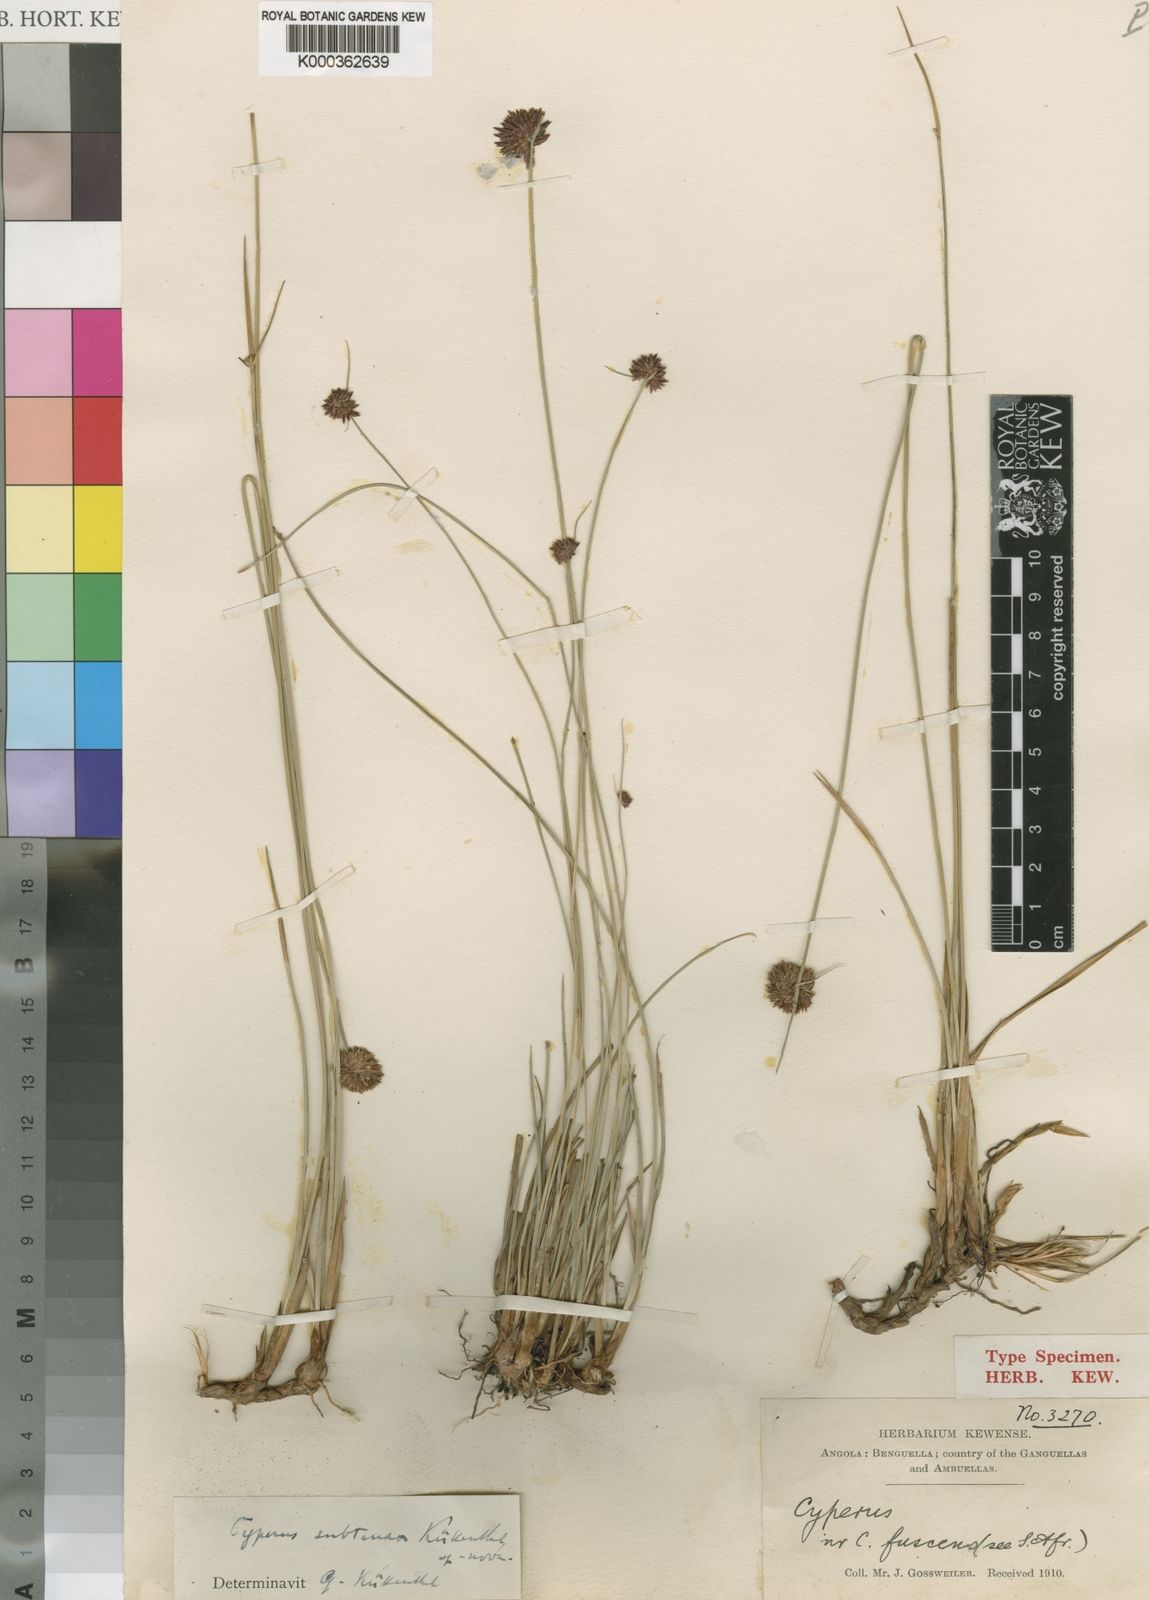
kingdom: Plantae
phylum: Tracheophyta
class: Liliopsida
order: Poales
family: Cyperaceae
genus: Cyperus
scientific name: Cyperus
